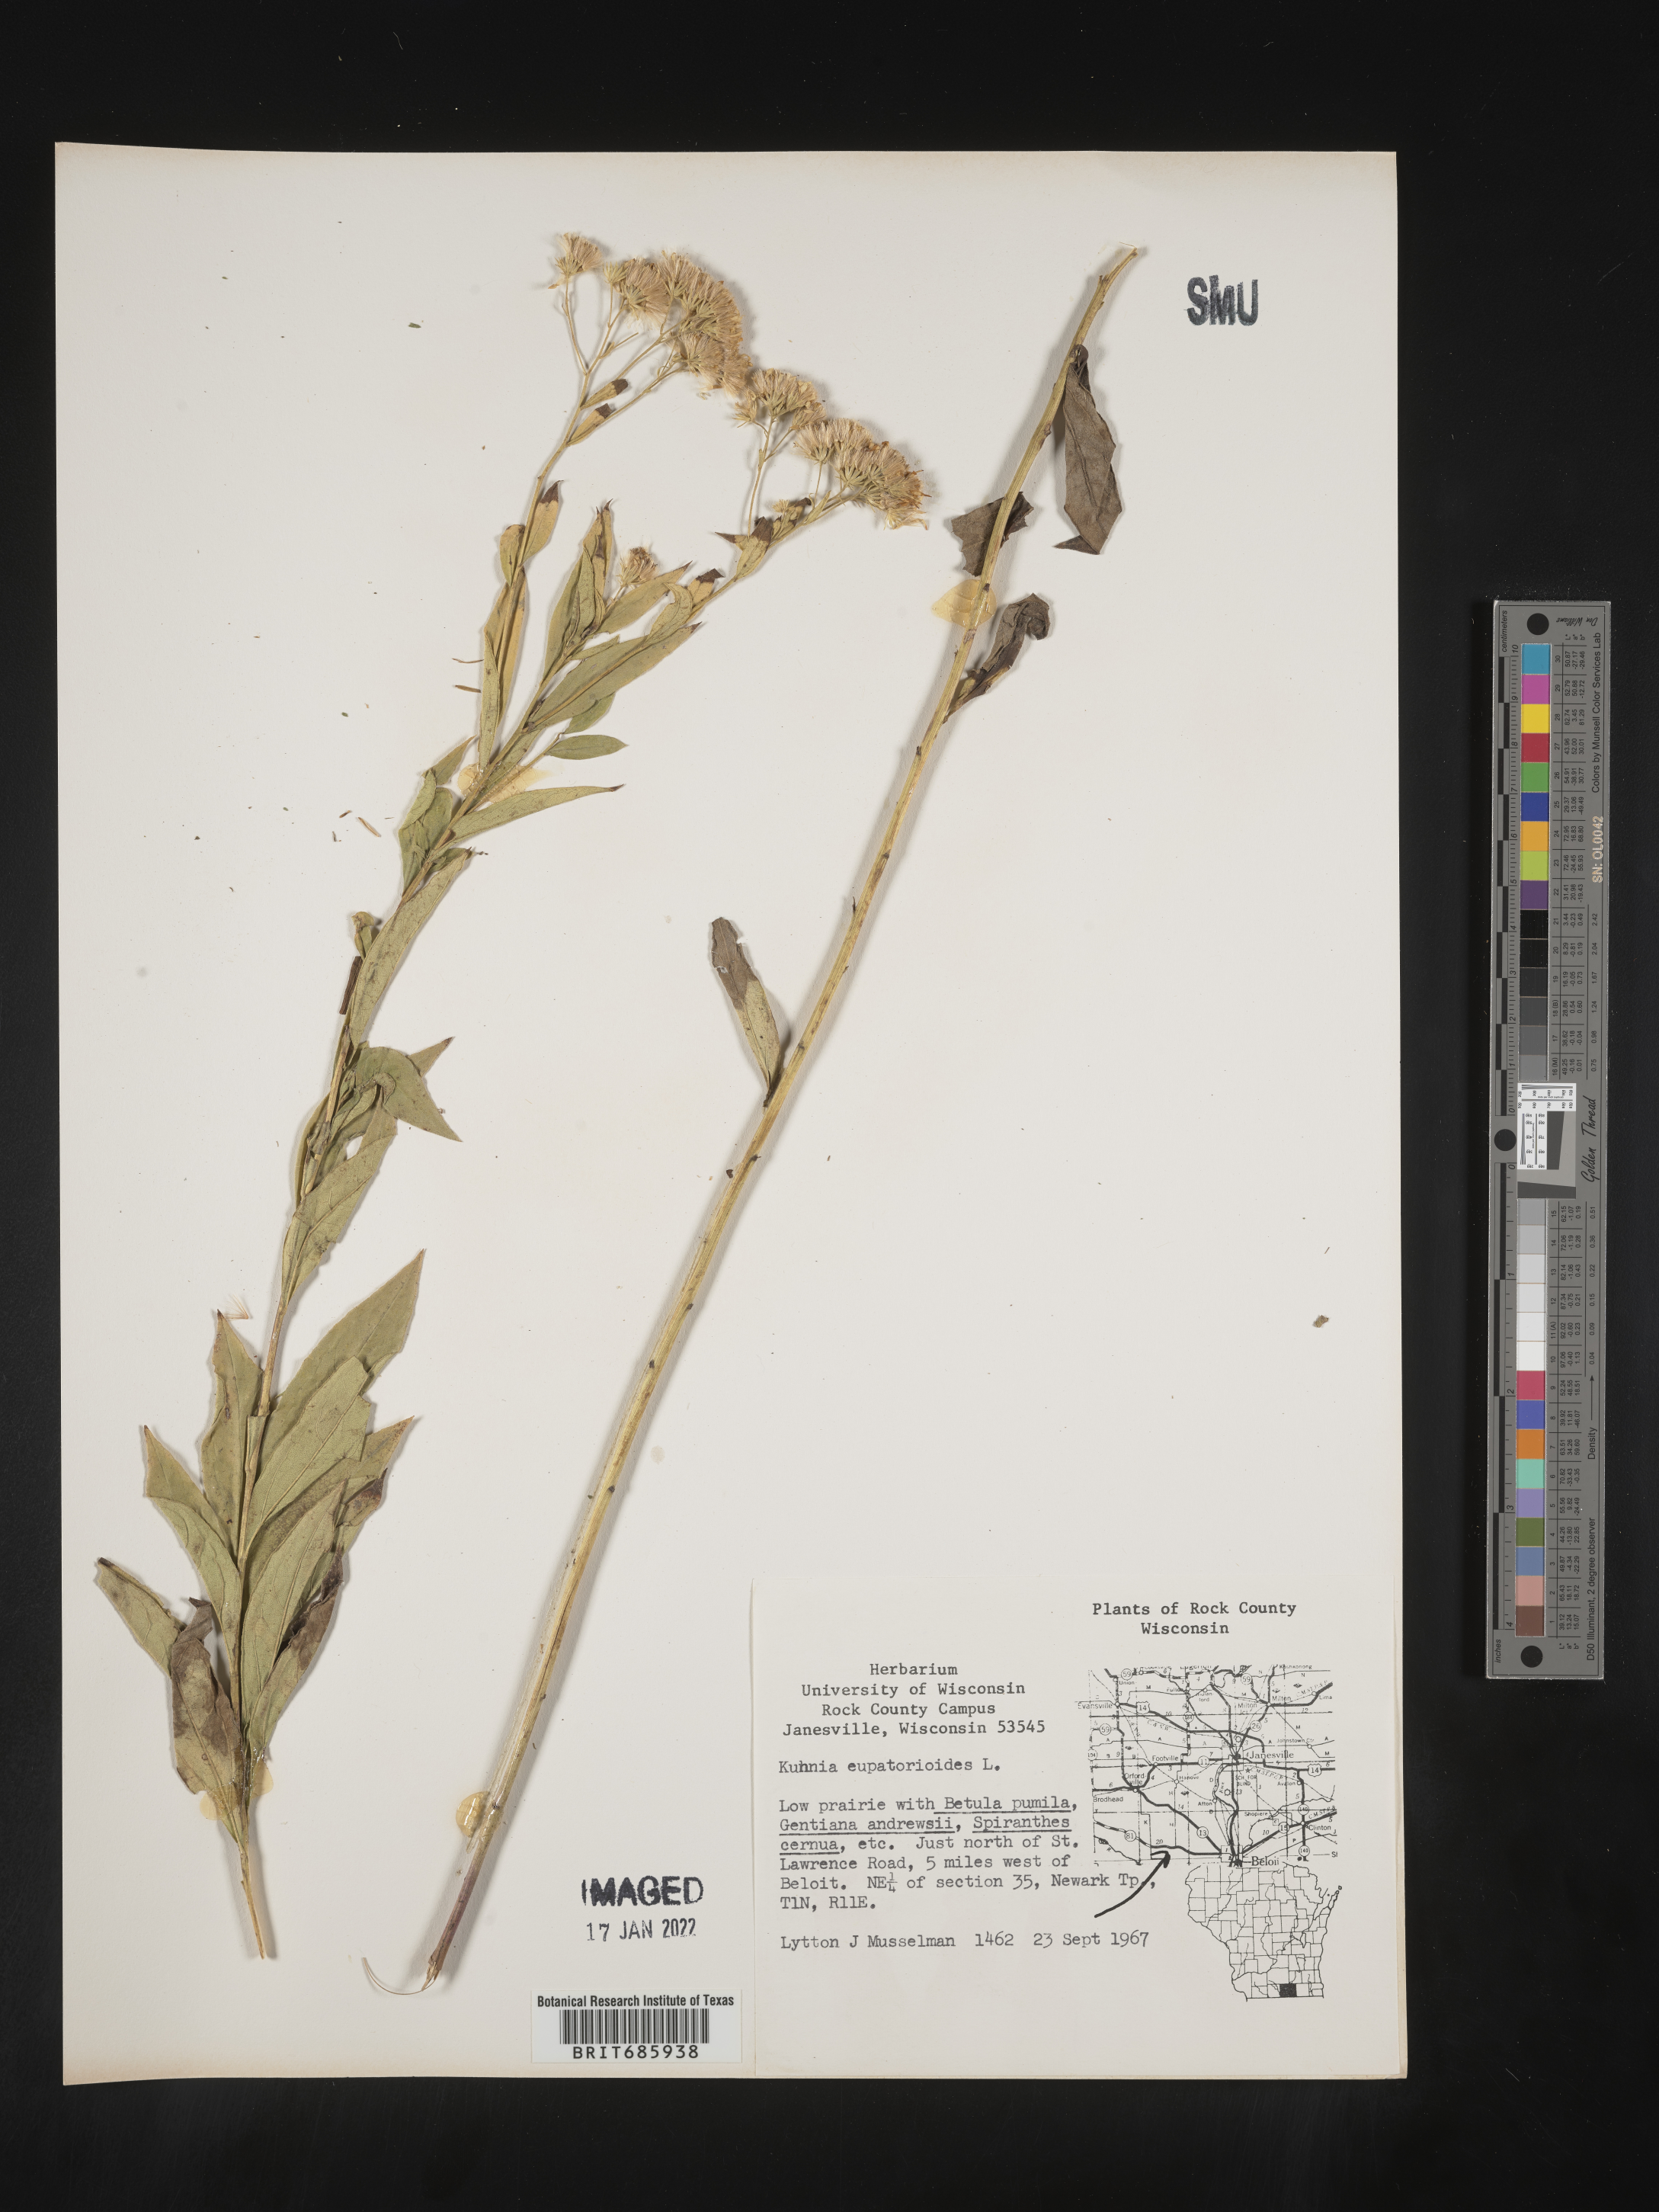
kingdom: Plantae
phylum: Tracheophyta
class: Magnoliopsida
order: Asterales
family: Asteraceae
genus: Brickellia
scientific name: Brickellia eupatorioides
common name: False boneset
